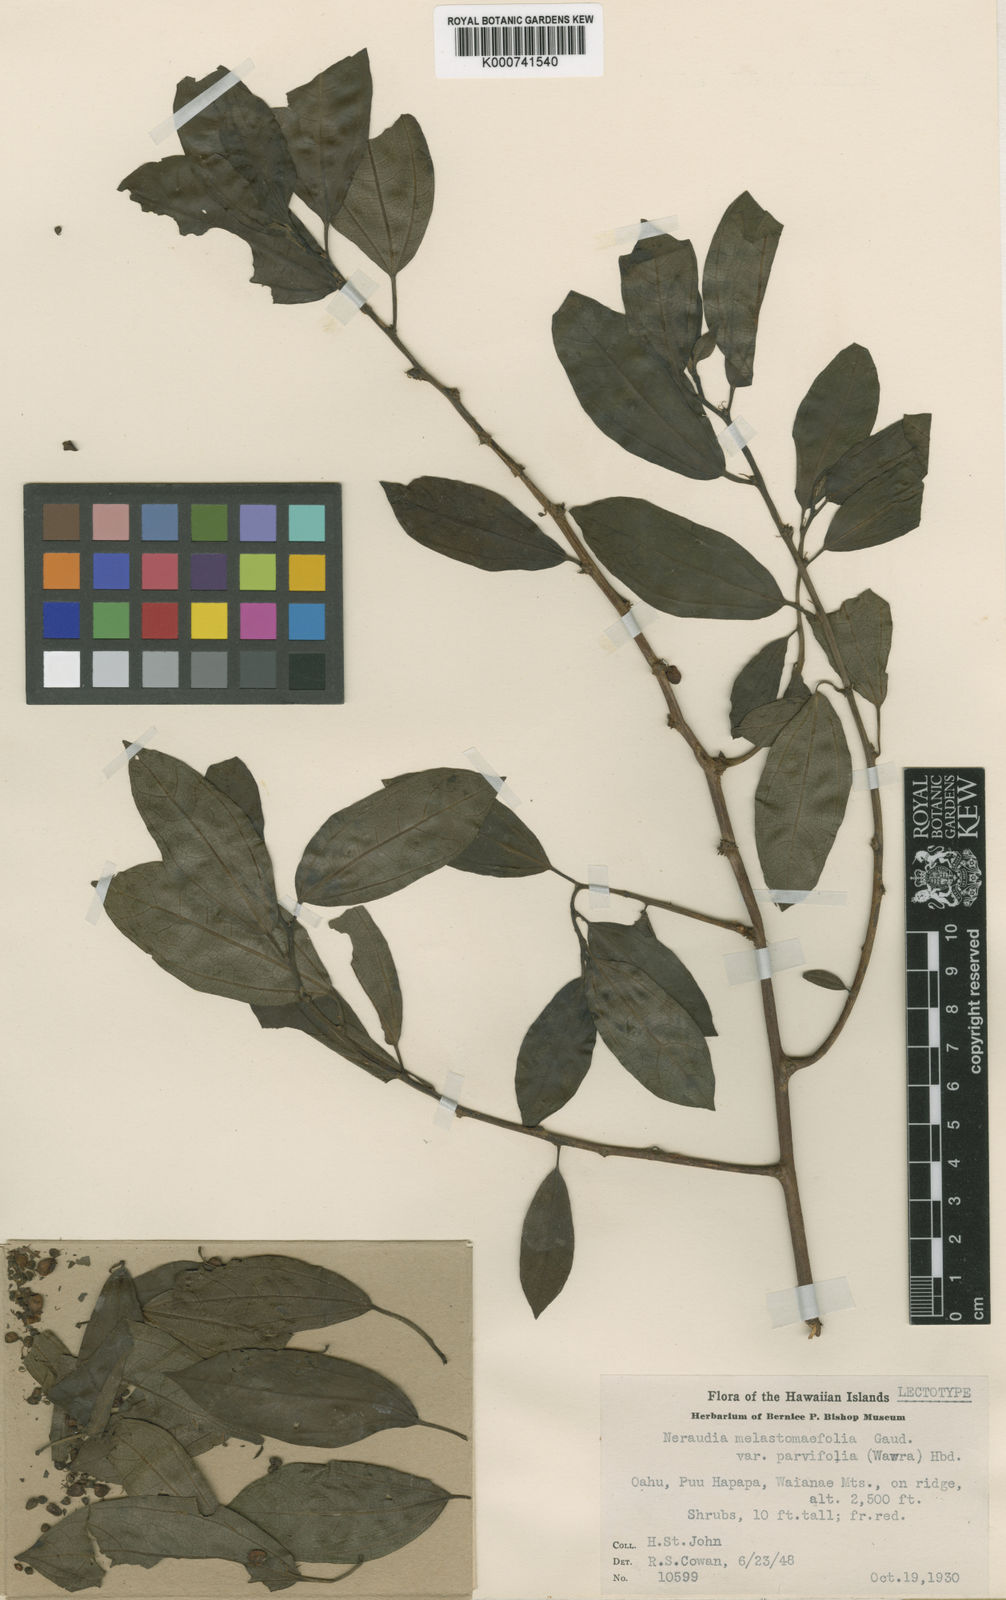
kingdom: Plantae
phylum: Tracheophyta
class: Magnoliopsida
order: Rosales
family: Urticaceae
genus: Neraudia
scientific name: Neraudia melastomifolia
